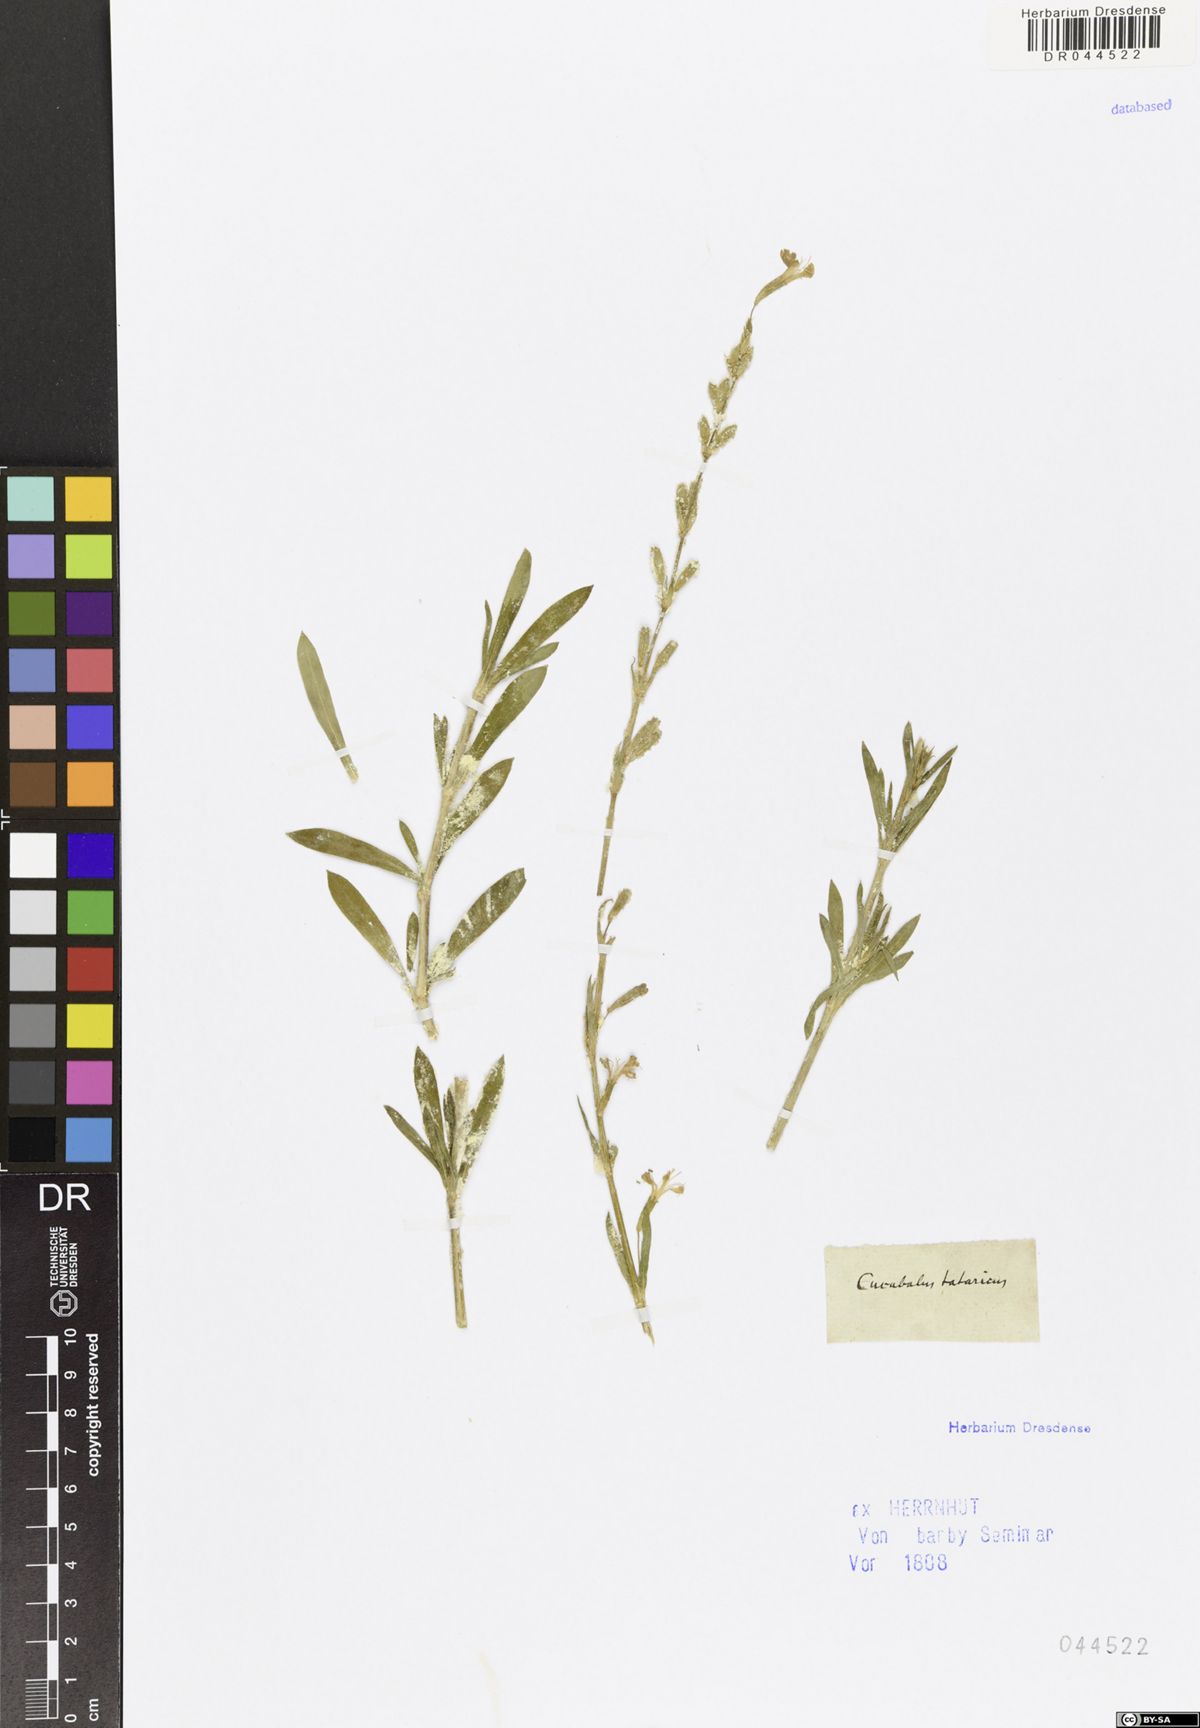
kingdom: Plantae
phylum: Tracheophyta
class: Magnoliopsida
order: Caryophyllales
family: Caryophyllaceae
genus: Silene
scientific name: Silene tatarica
